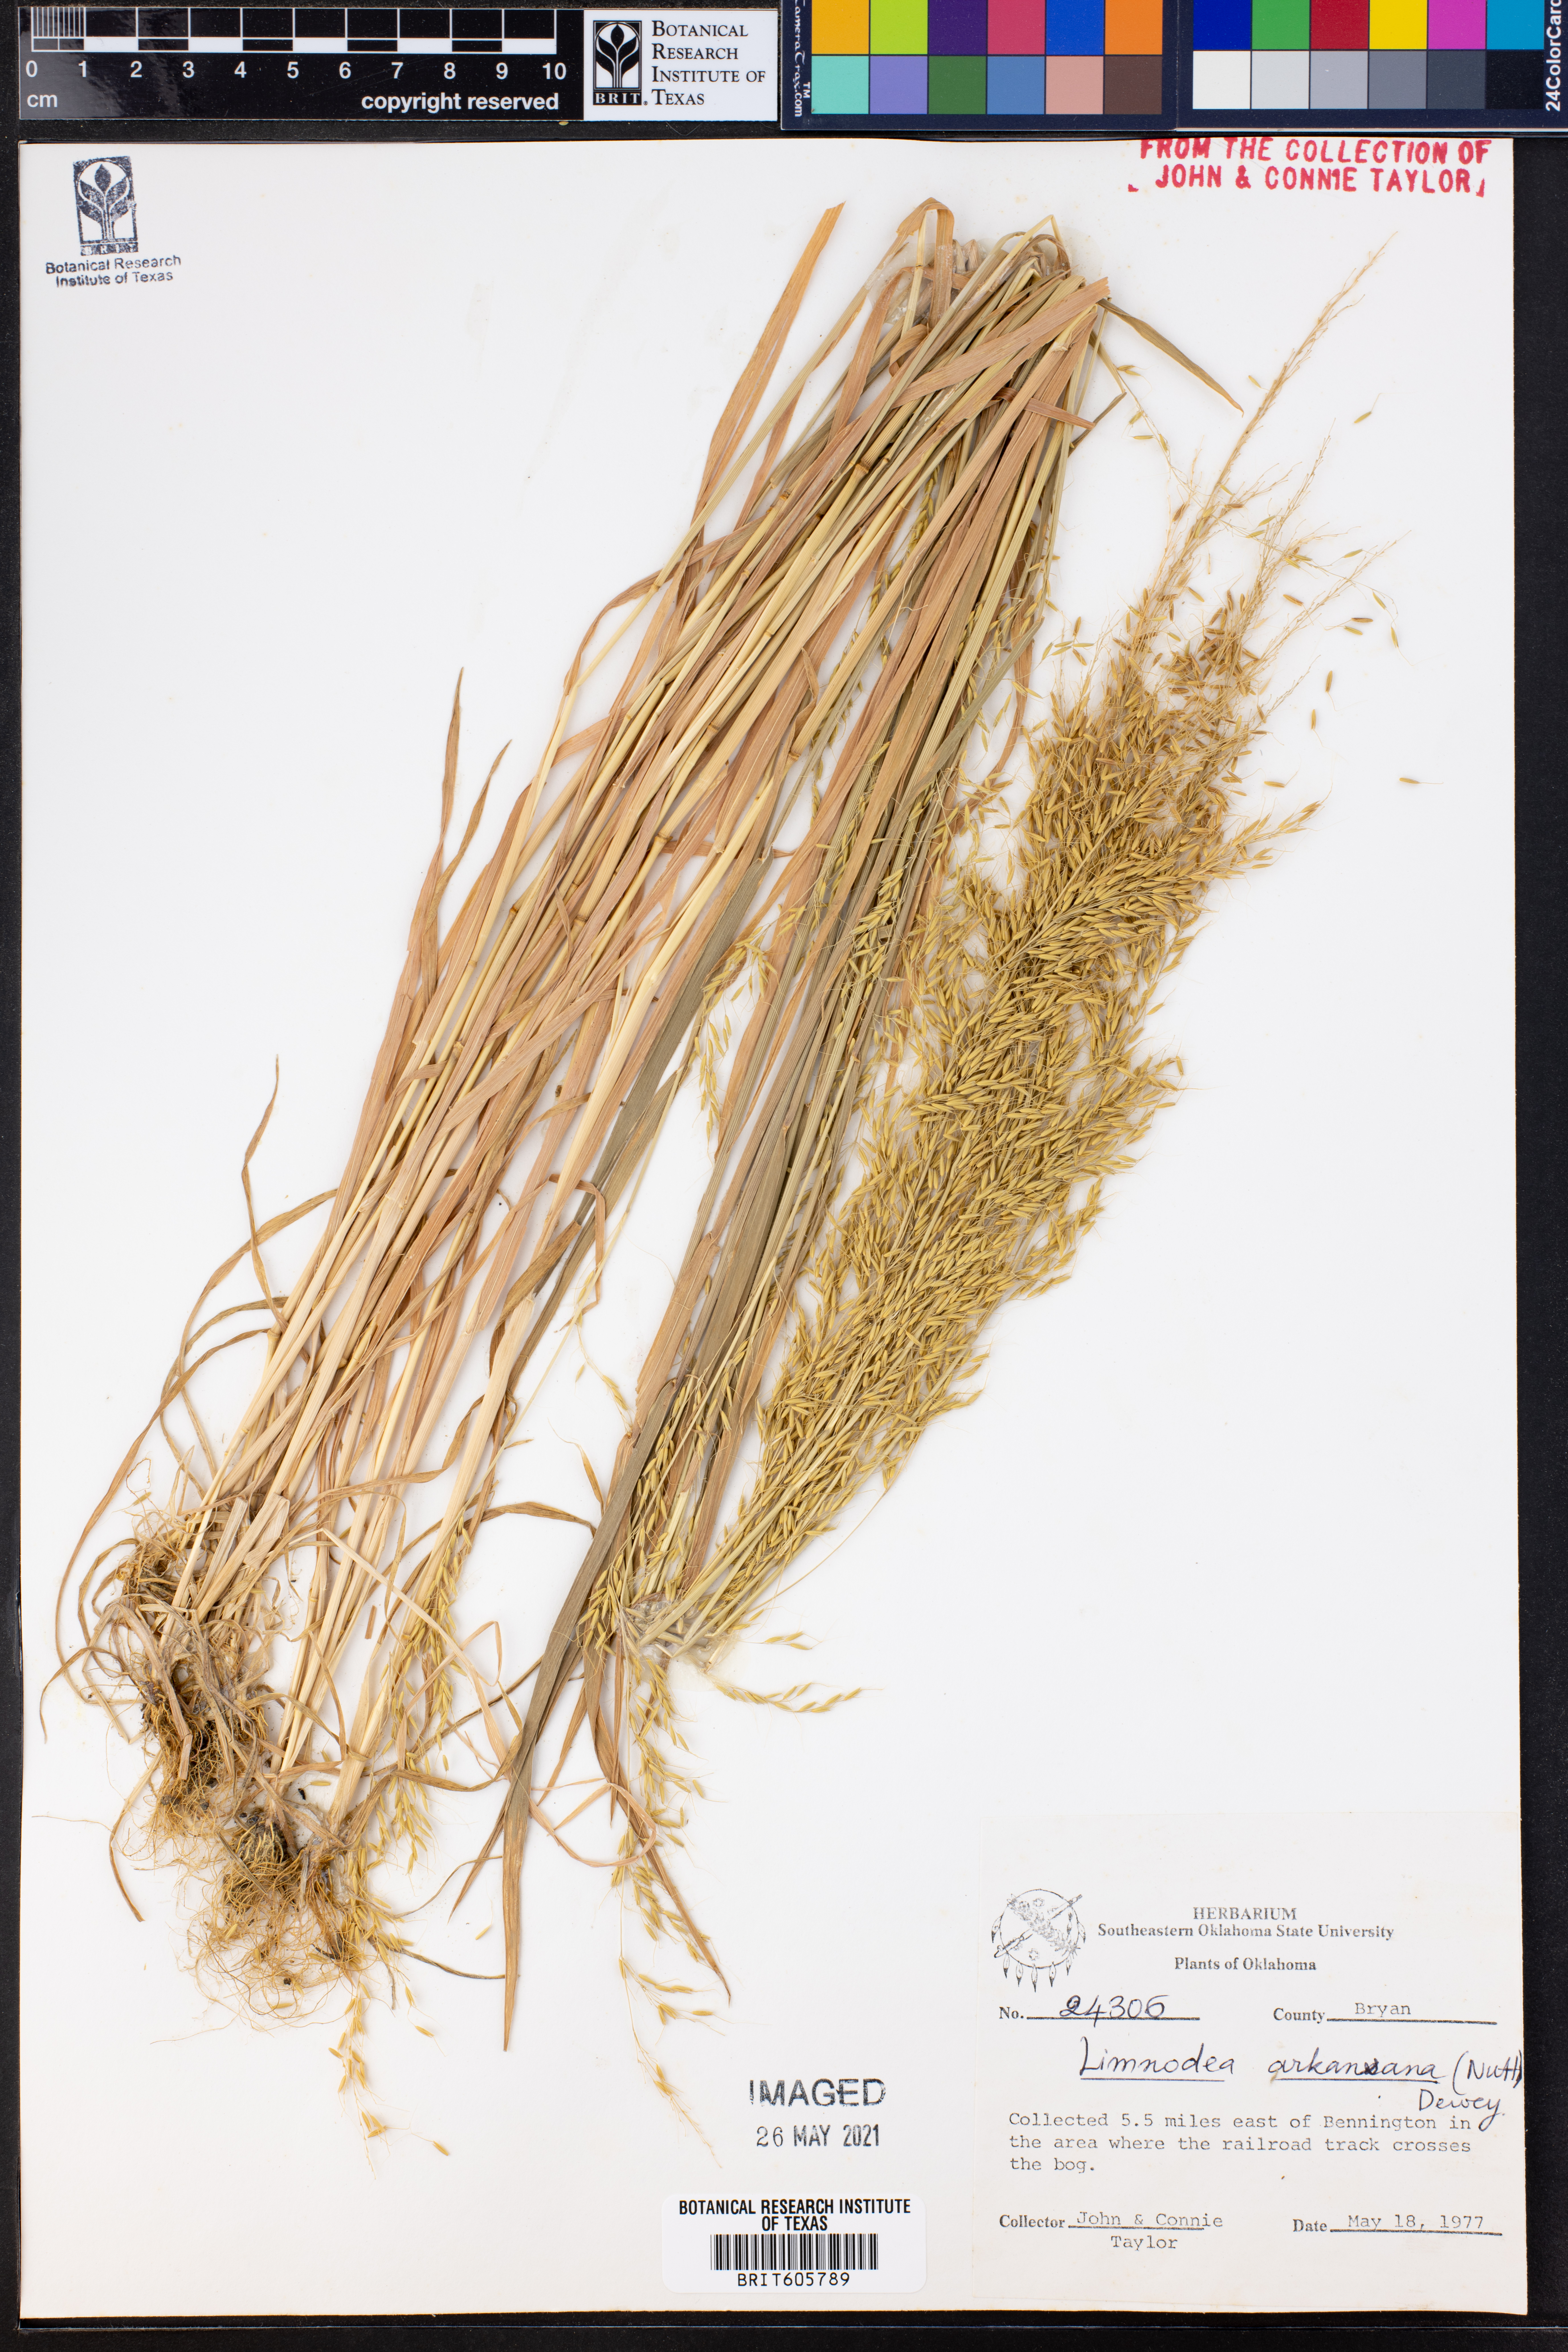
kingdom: Plantae
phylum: Tracheophyta
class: Liliopsida
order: Poales
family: Poaceae
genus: Limnodea
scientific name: Limnodea arkansana
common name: Ozark-grass
